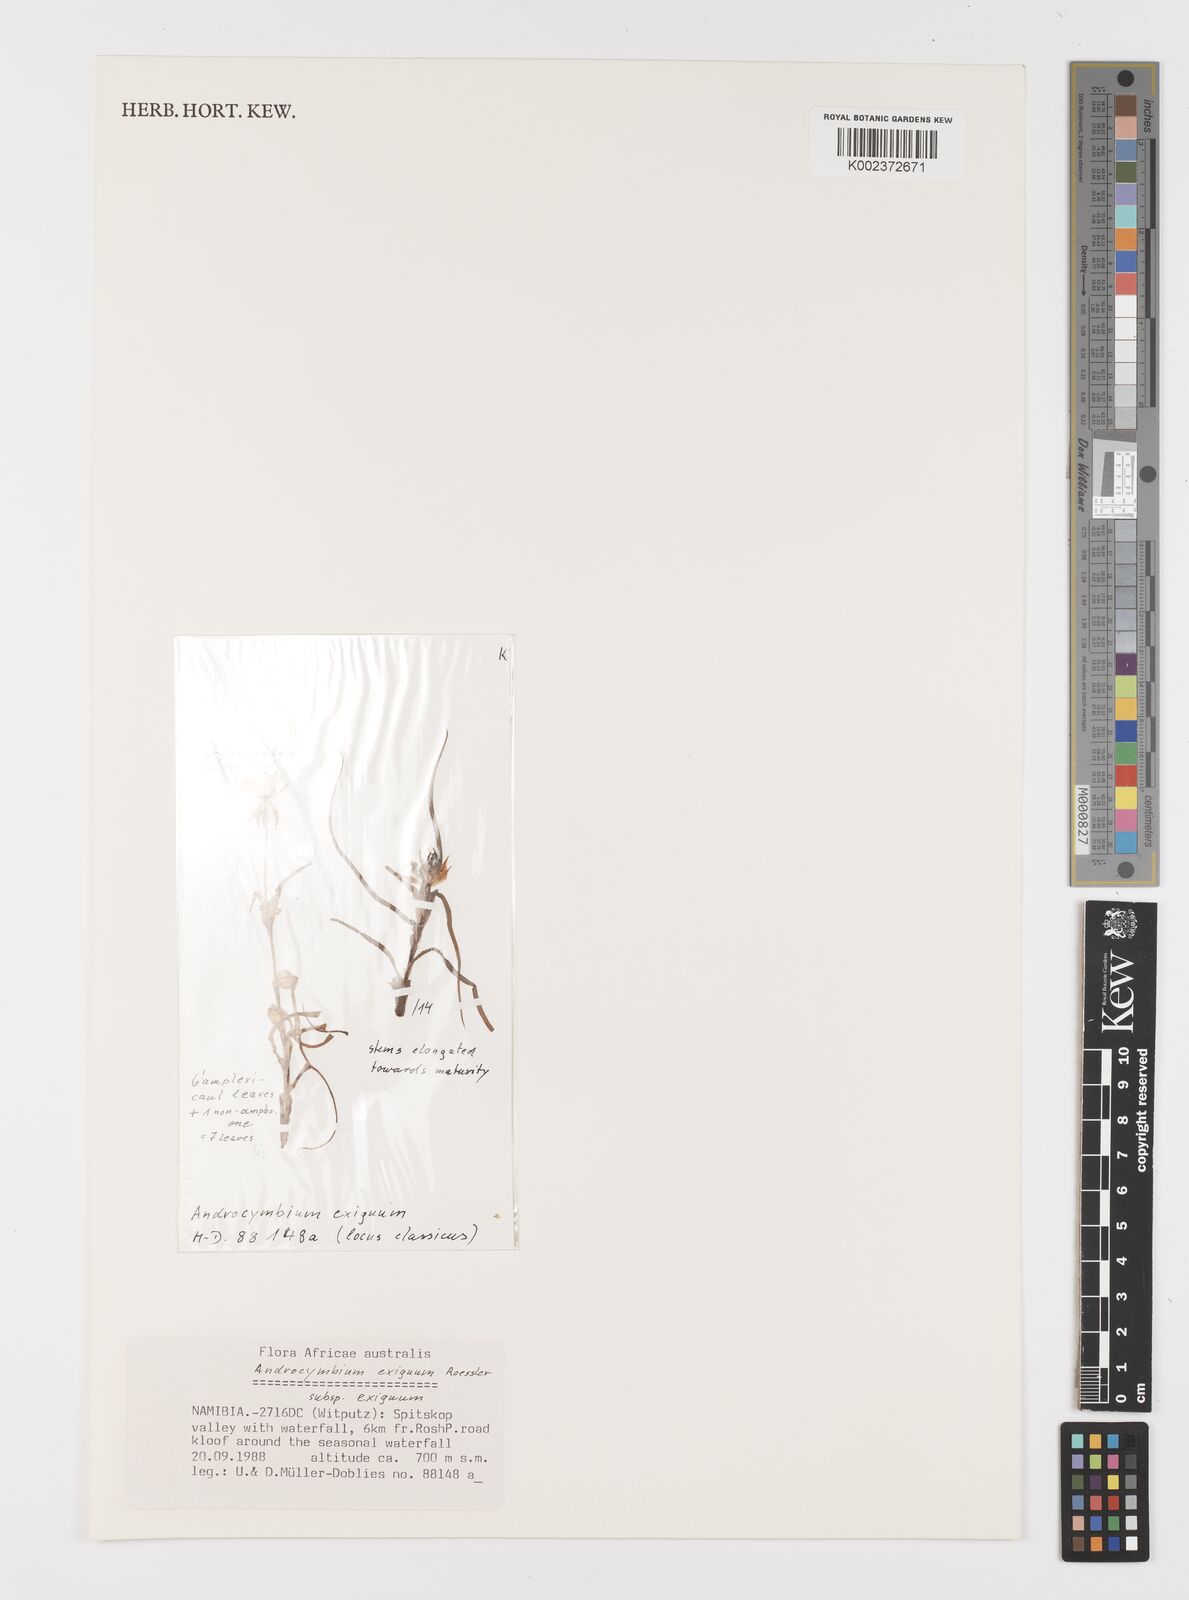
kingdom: Plantae
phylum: Tracheophyta
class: Liliopsida
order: Liliales
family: Colchicaceae
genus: Colchicum
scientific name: Colchicum exiguum
